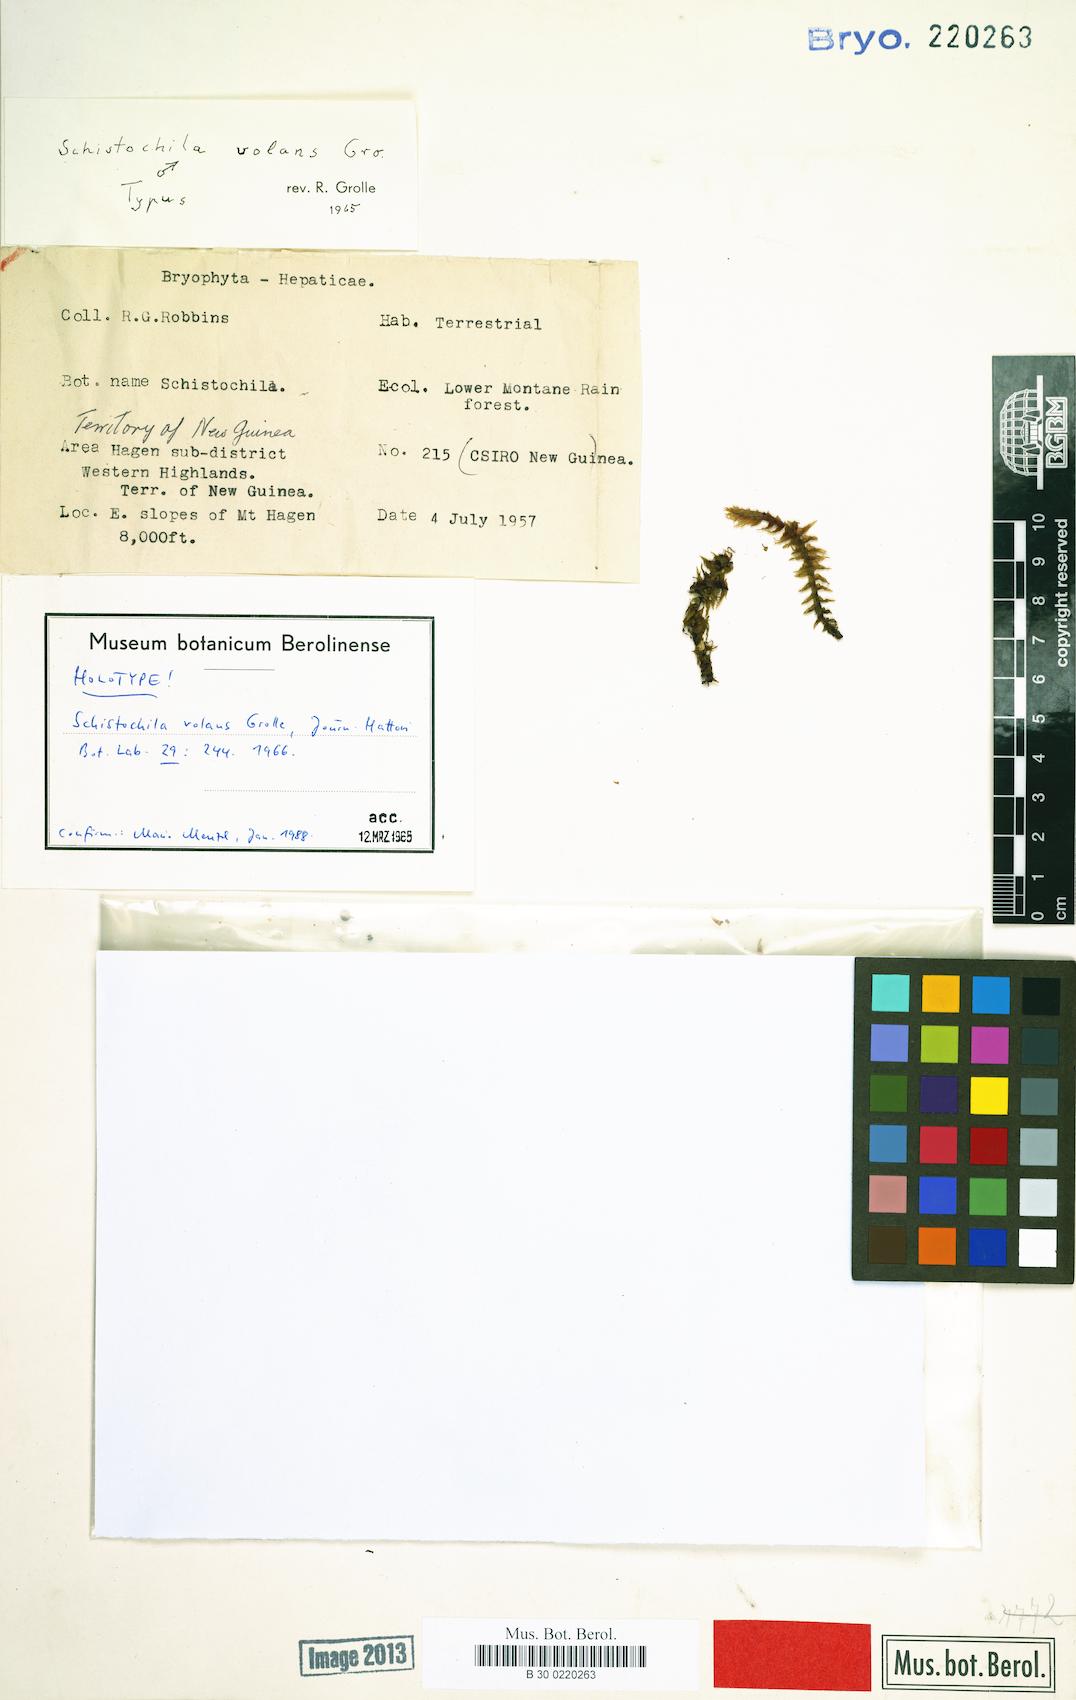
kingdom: Plantae
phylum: Marchantiophyta
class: Jungermanniopsida
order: Jungermanniales
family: Schistochilaceae
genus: Schistochila
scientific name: Schistochila volans
